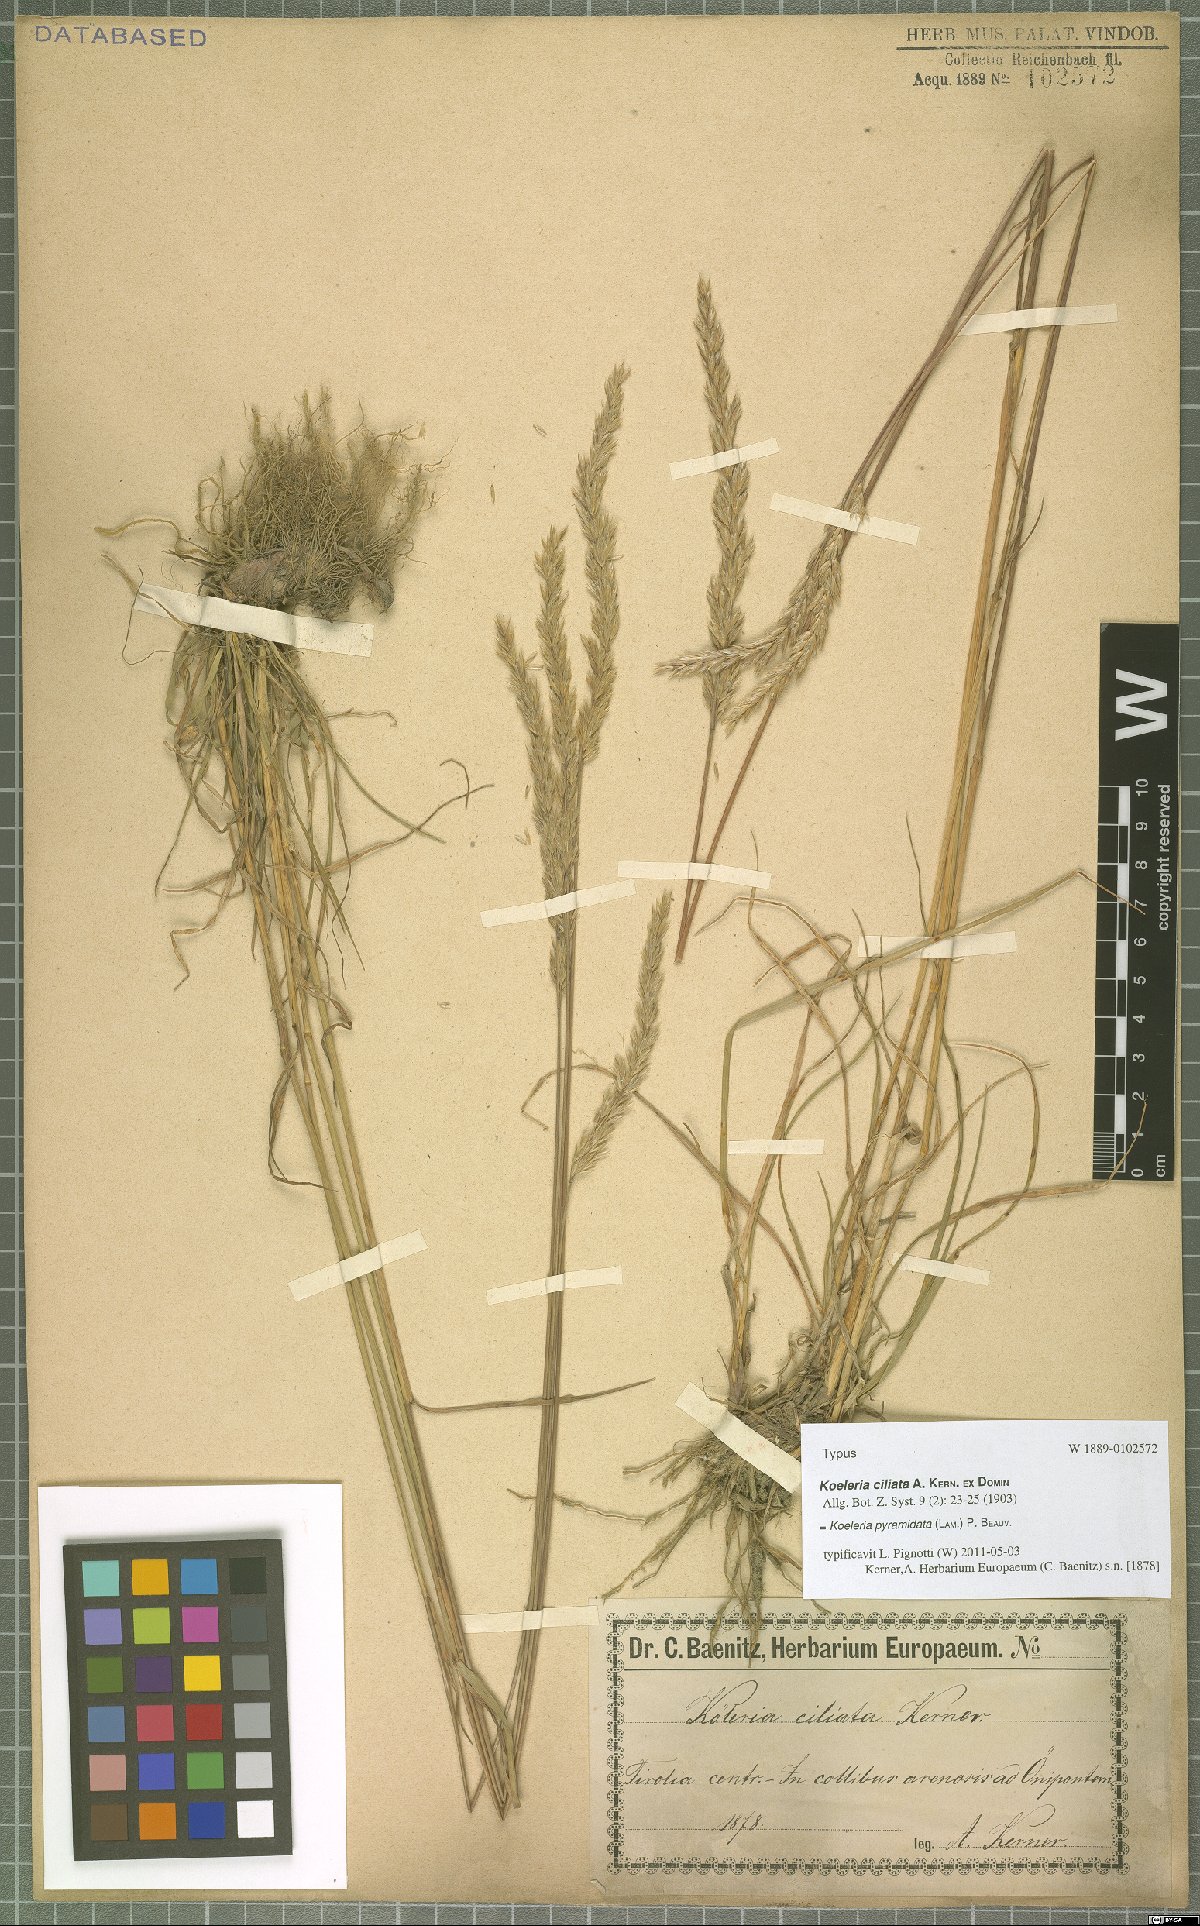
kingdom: Plantae
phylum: Tracheophyta
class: Liliopsida
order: Poales
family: Poaceae
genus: Koeleria
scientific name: Koeleria pyramidata
